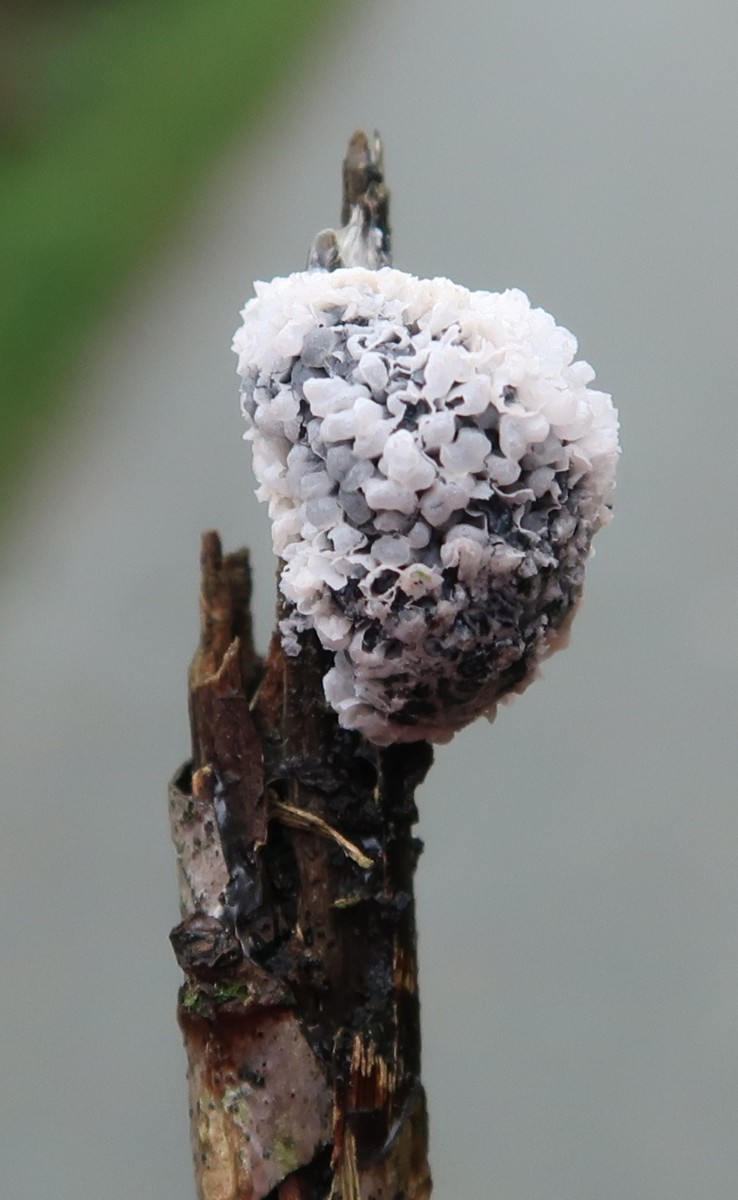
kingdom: Protozoa
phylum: Mycetozoa
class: Myxomycetes
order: Physarales
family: Physaraceae
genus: Didymium
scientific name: Didymium
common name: urteskum
